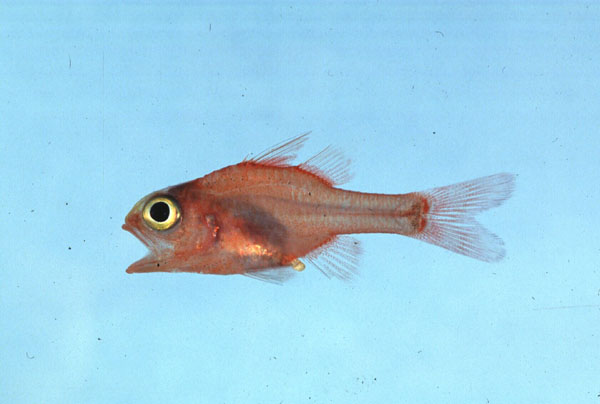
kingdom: Animalia
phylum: Chordata
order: Perciformes
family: Apogonidae
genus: Apogon
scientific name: Apogon erythrinus
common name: Ruby cardinalfish
